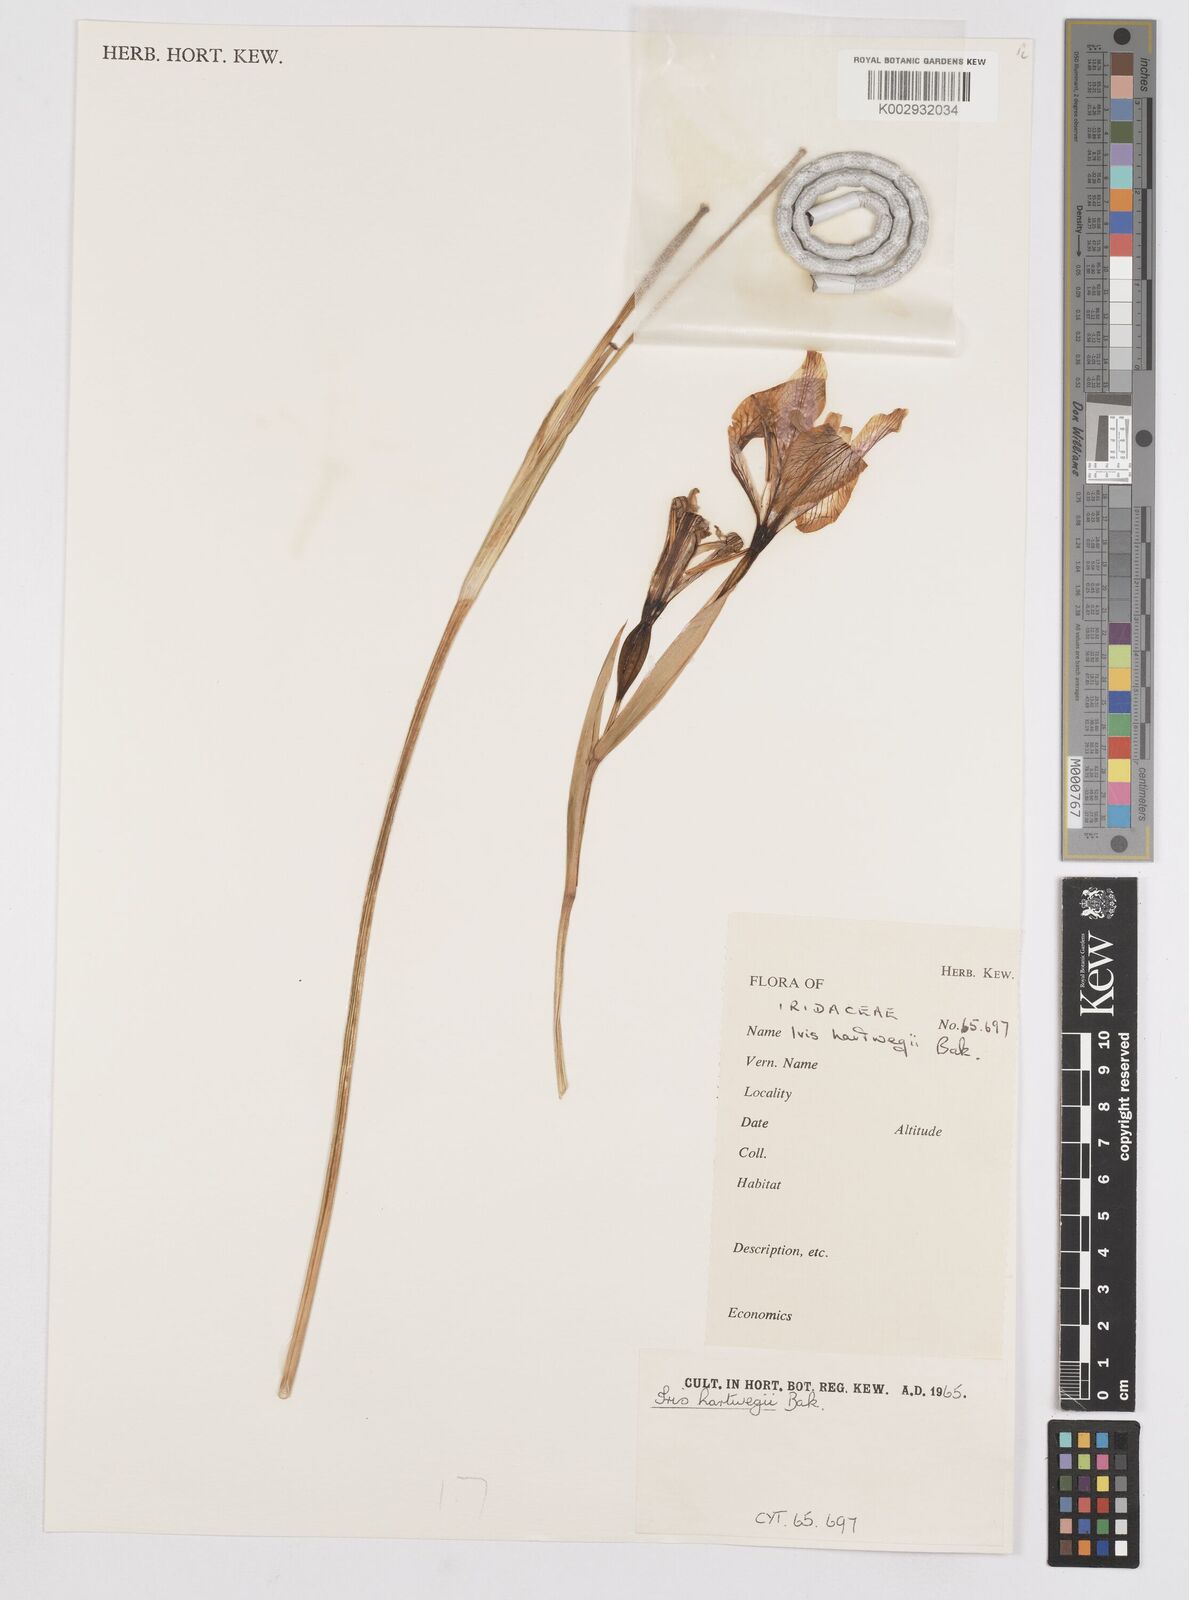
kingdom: Plantae
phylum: Tracheophyta
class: Liliopsida
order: Asparagales
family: Iridaceae
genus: Iris
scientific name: Iris hartwegii
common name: Sierra iris
